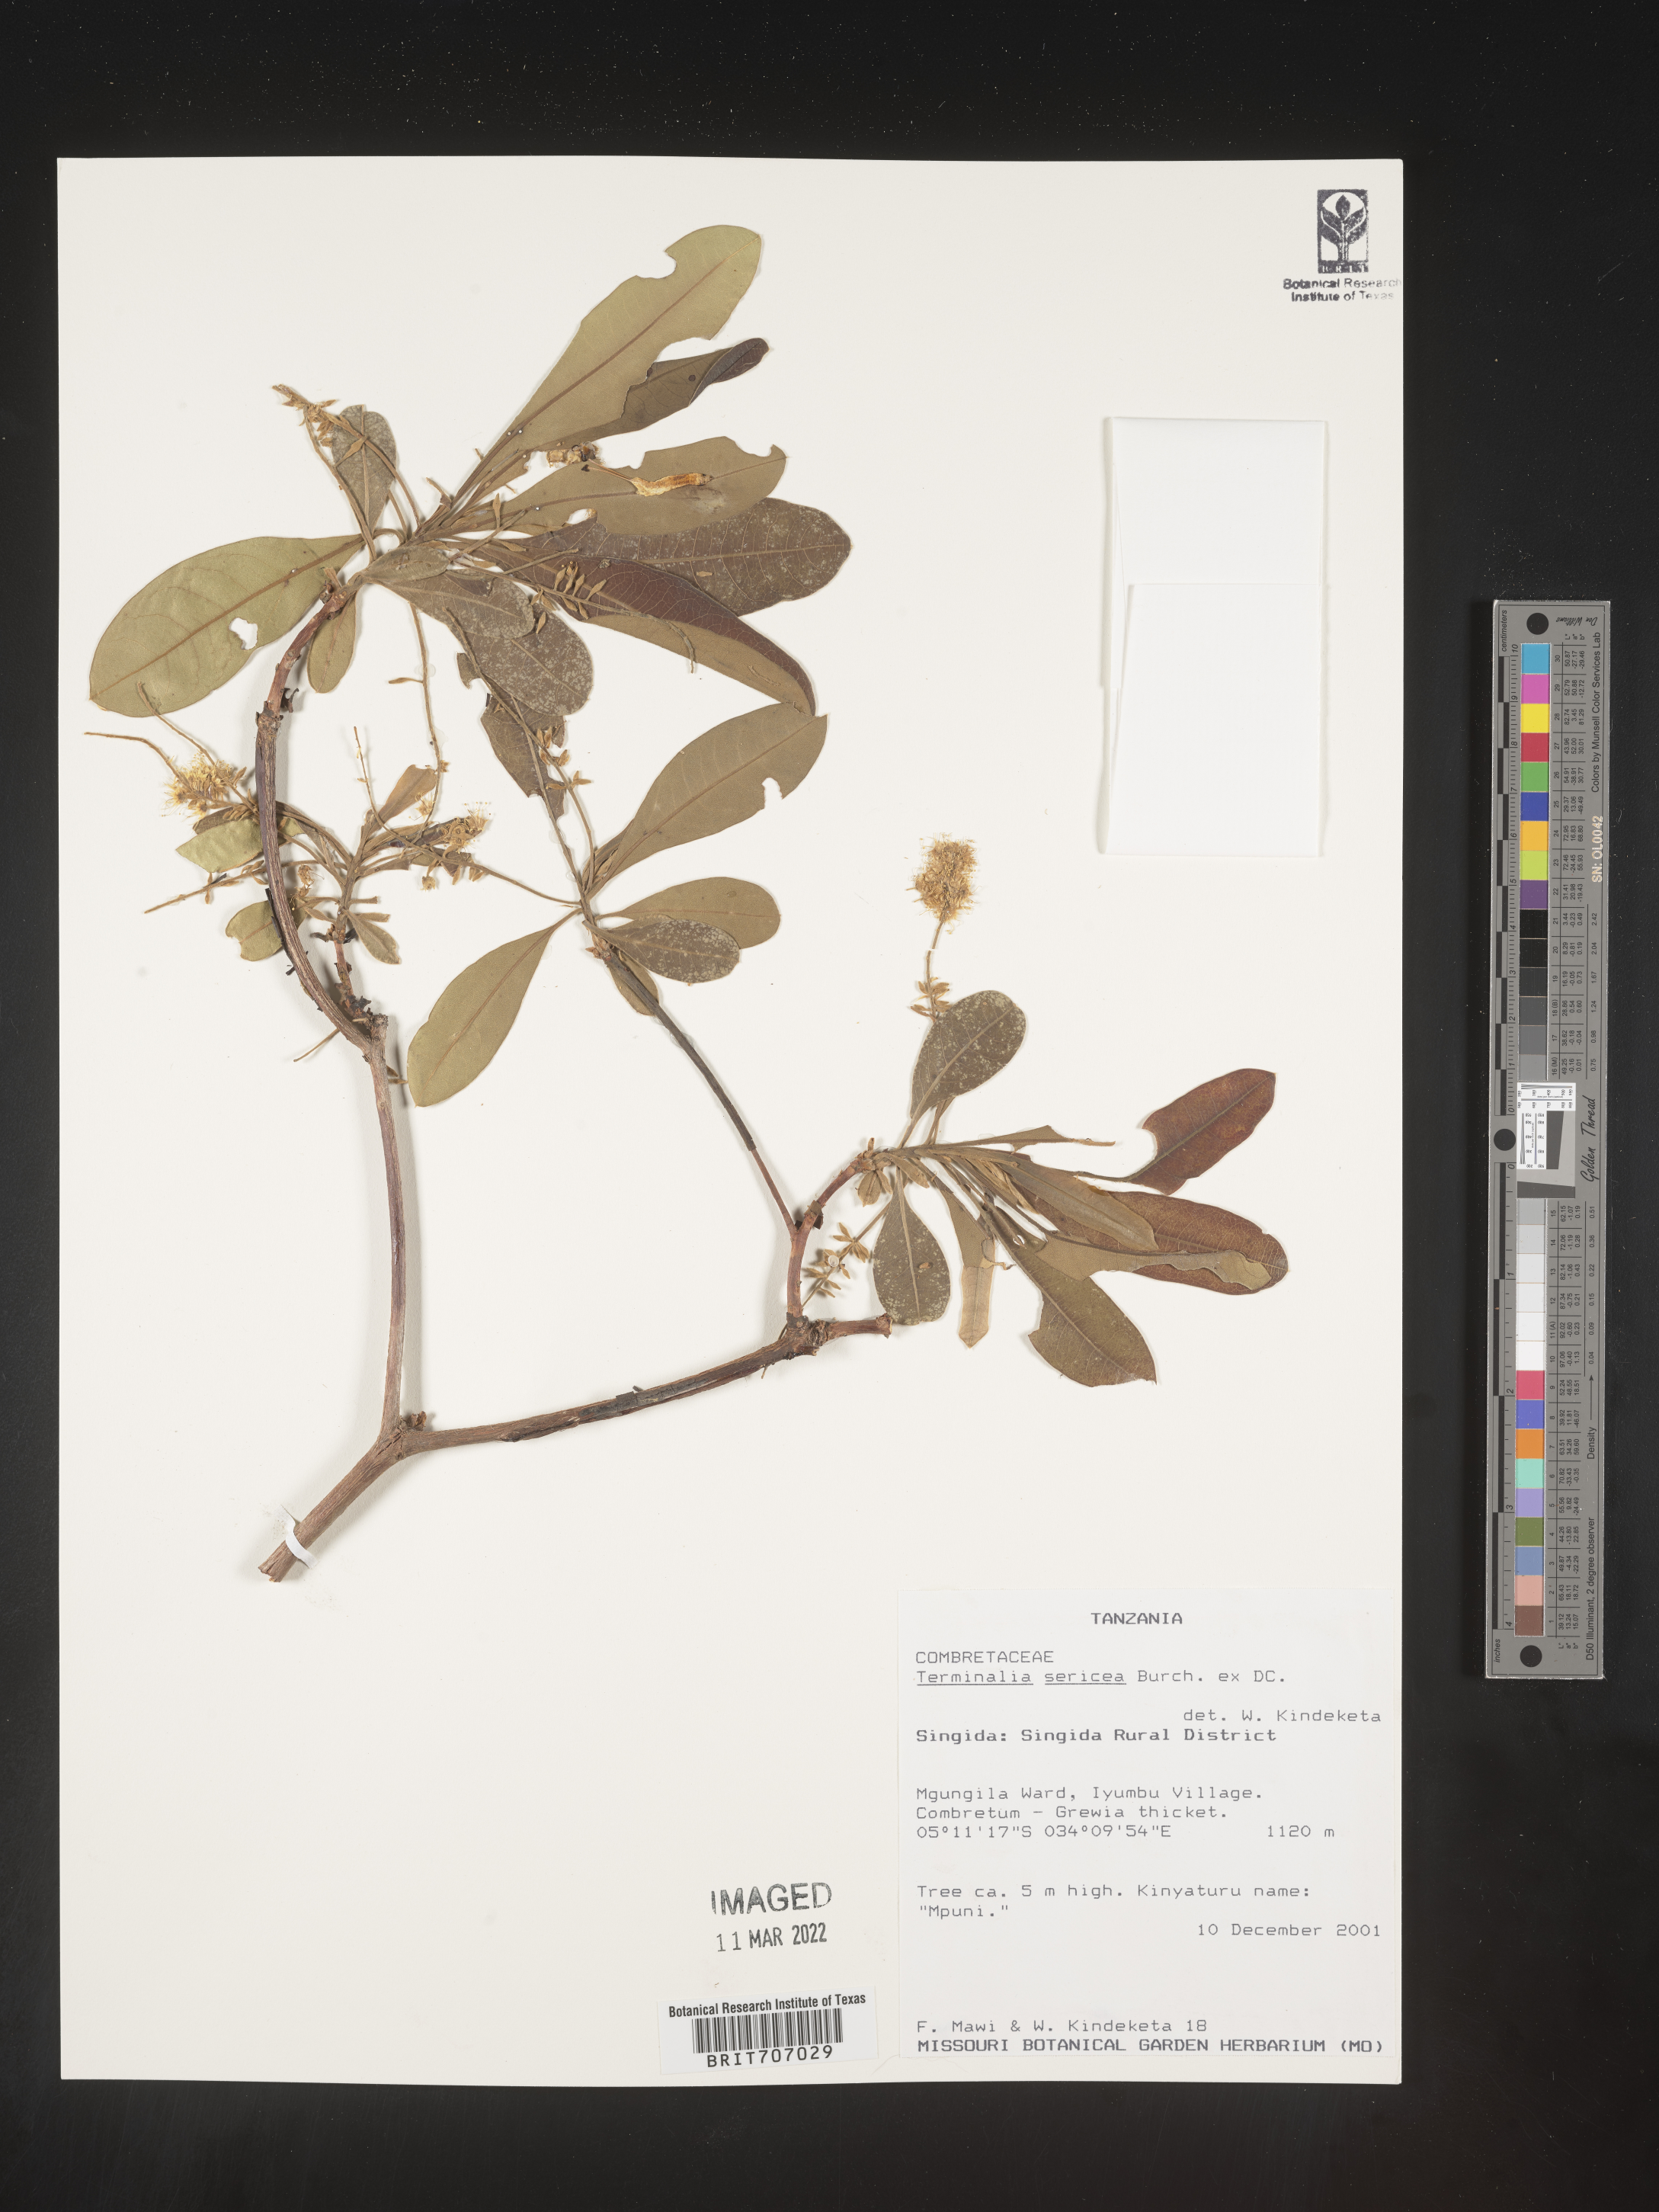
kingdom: Plantae
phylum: Tracheophyta
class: Magnoliopsida
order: Myrtales
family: Combretaceae
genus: Terminalia
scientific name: Terminalia
